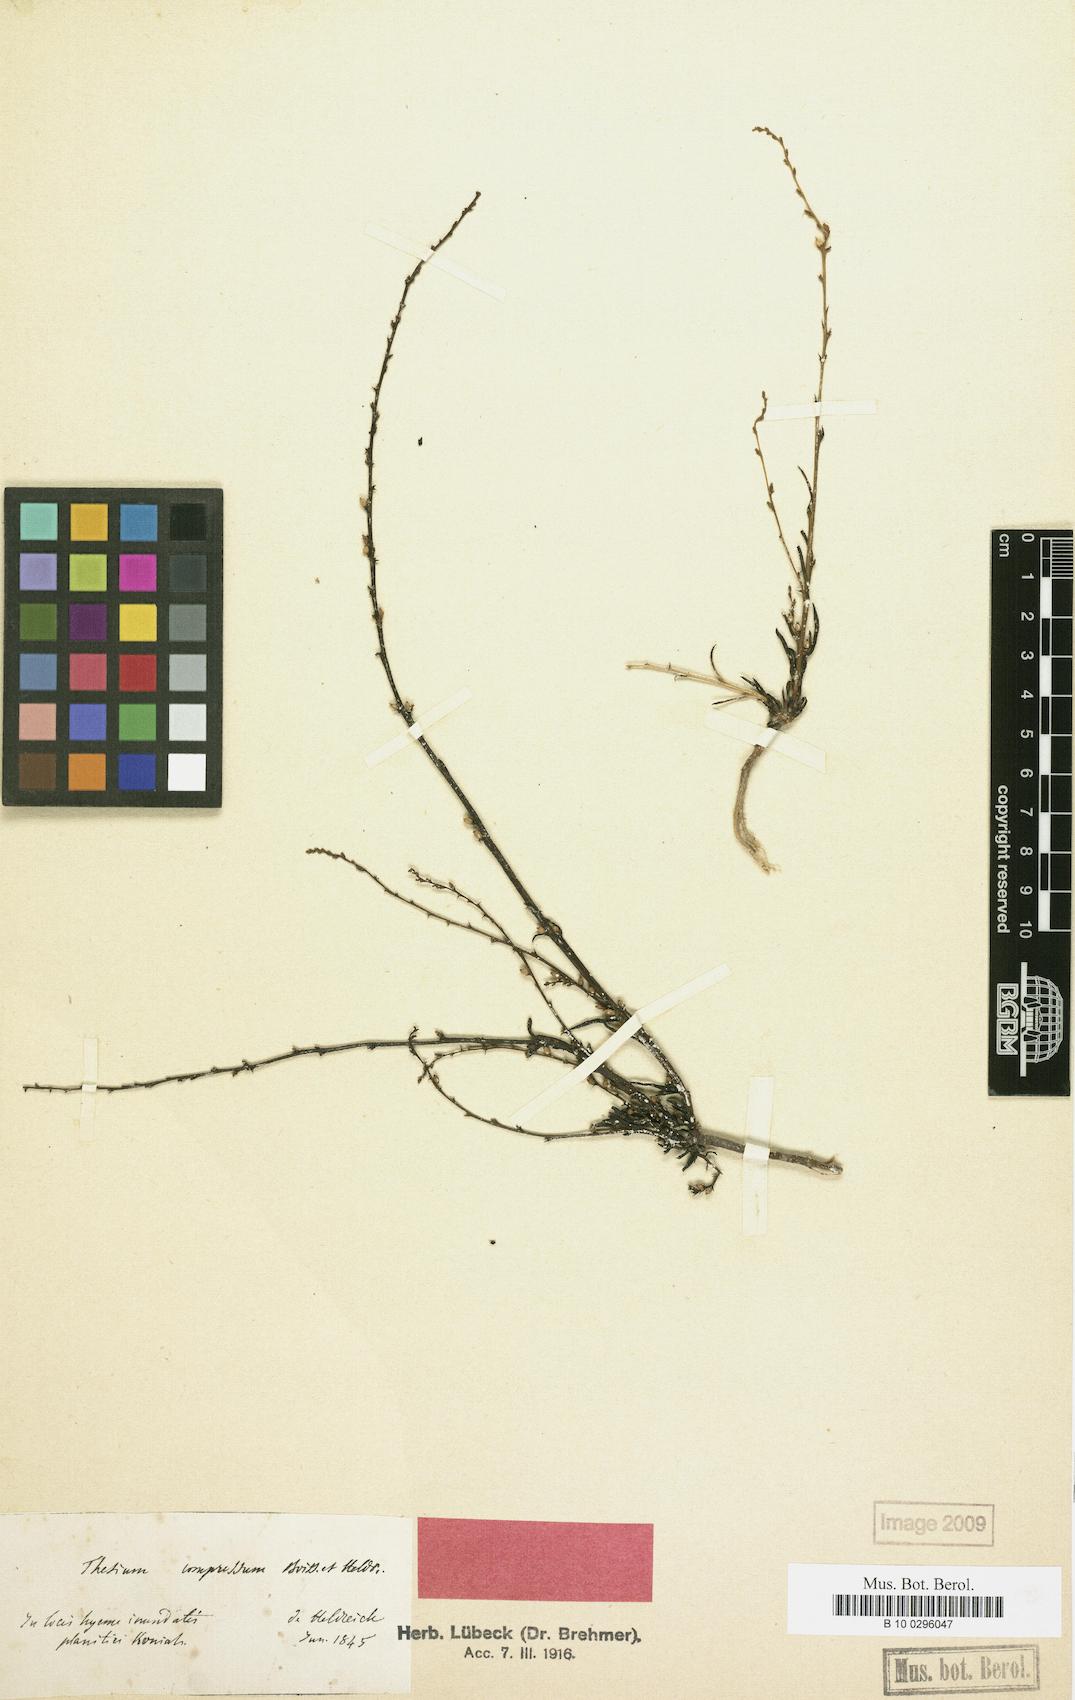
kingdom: Plantae
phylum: Tracheophyta
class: Magnoliopsida
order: Santalales
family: Thesiaceae
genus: Thesium
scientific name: Thesium compressum
